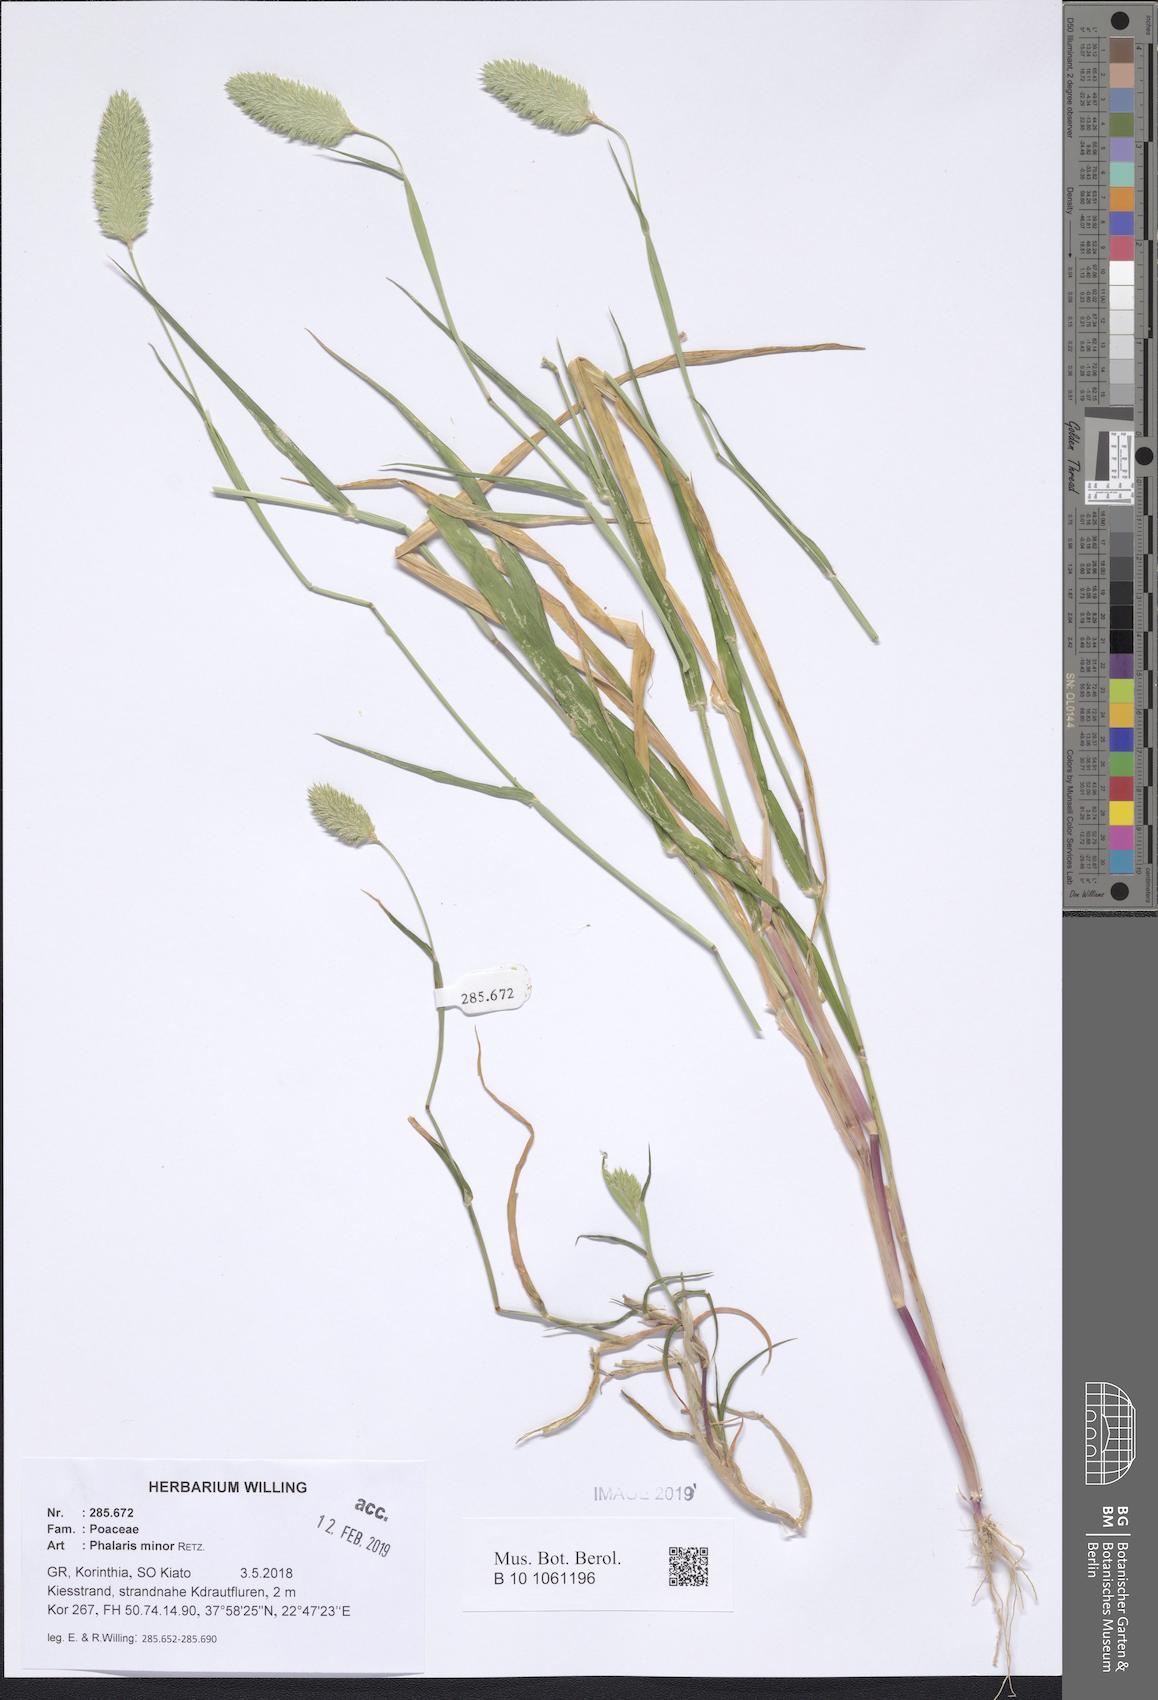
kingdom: Plantae
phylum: Tracheophyta
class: Liliopsida
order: Poales
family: Poaceae
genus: Phalaris
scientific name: Phalaris minor
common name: Littleseed canarygrass
